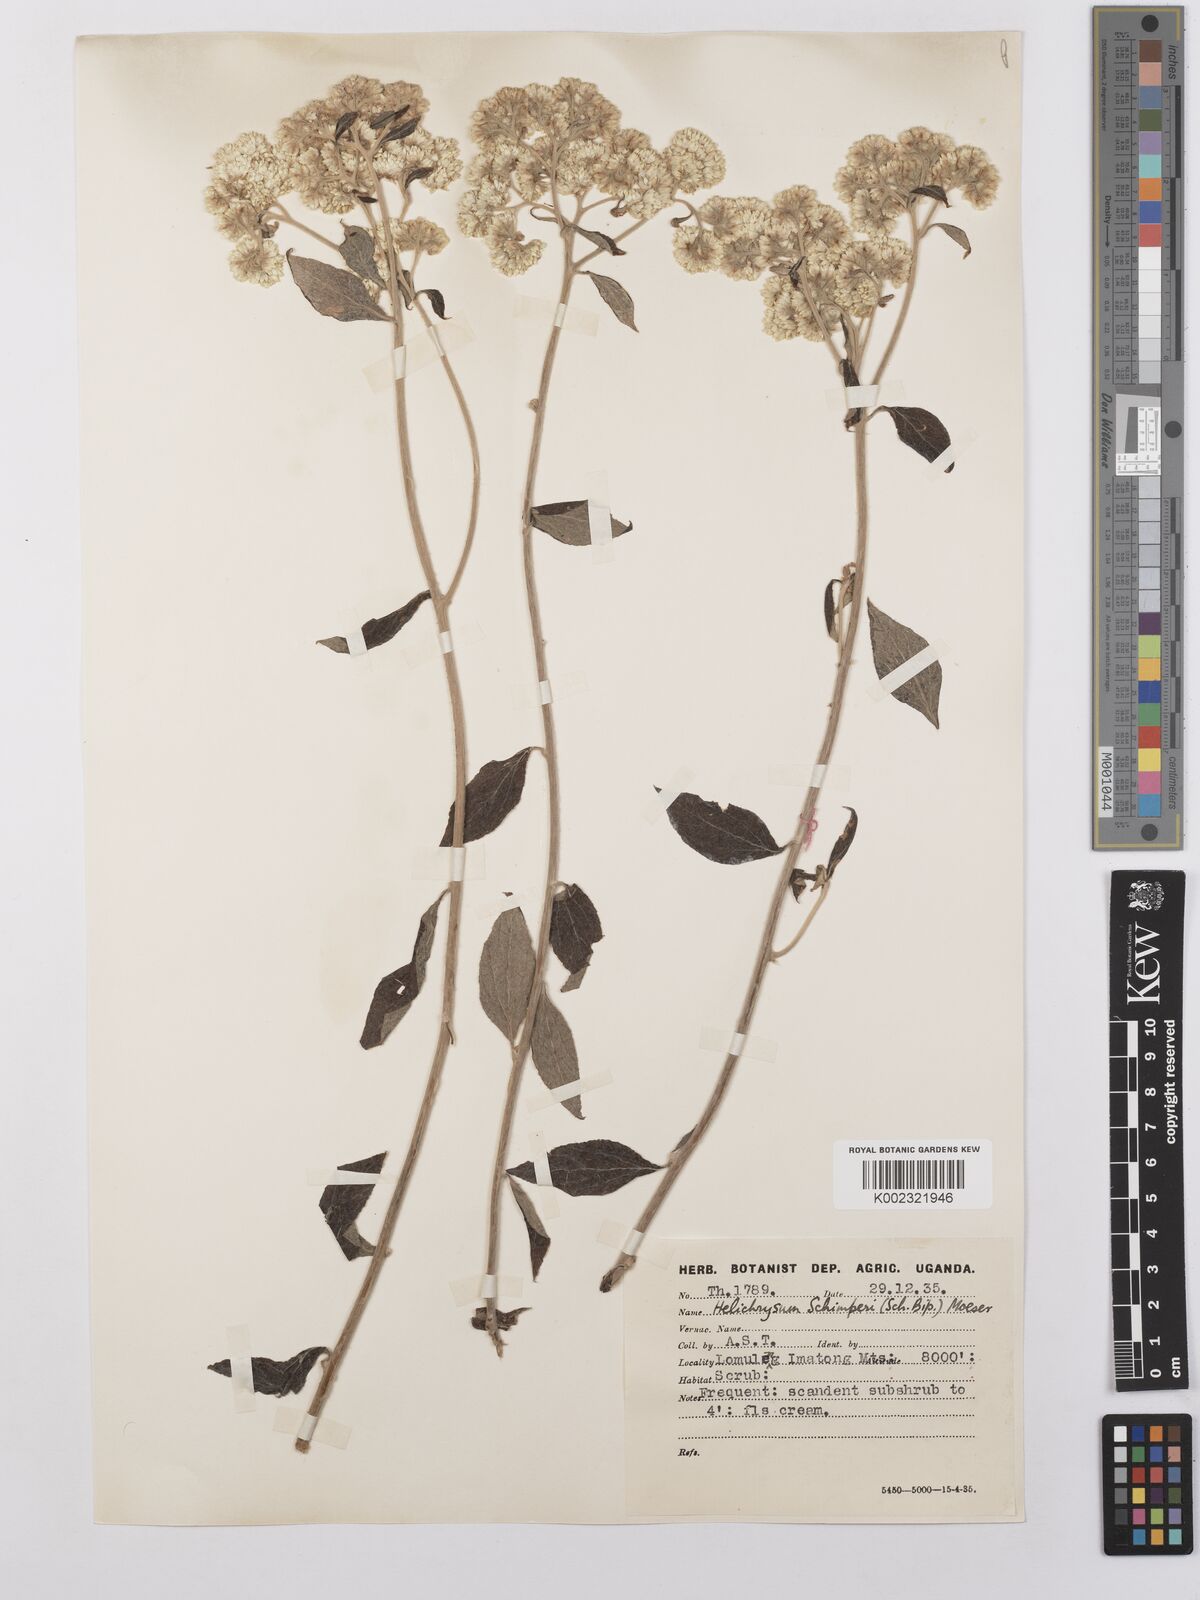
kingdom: Plantae
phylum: Tracheophyta
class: Magnoliopsida
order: Asterales
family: Asteraceae
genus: Helichrysum
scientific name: Helichrysum schimperi
